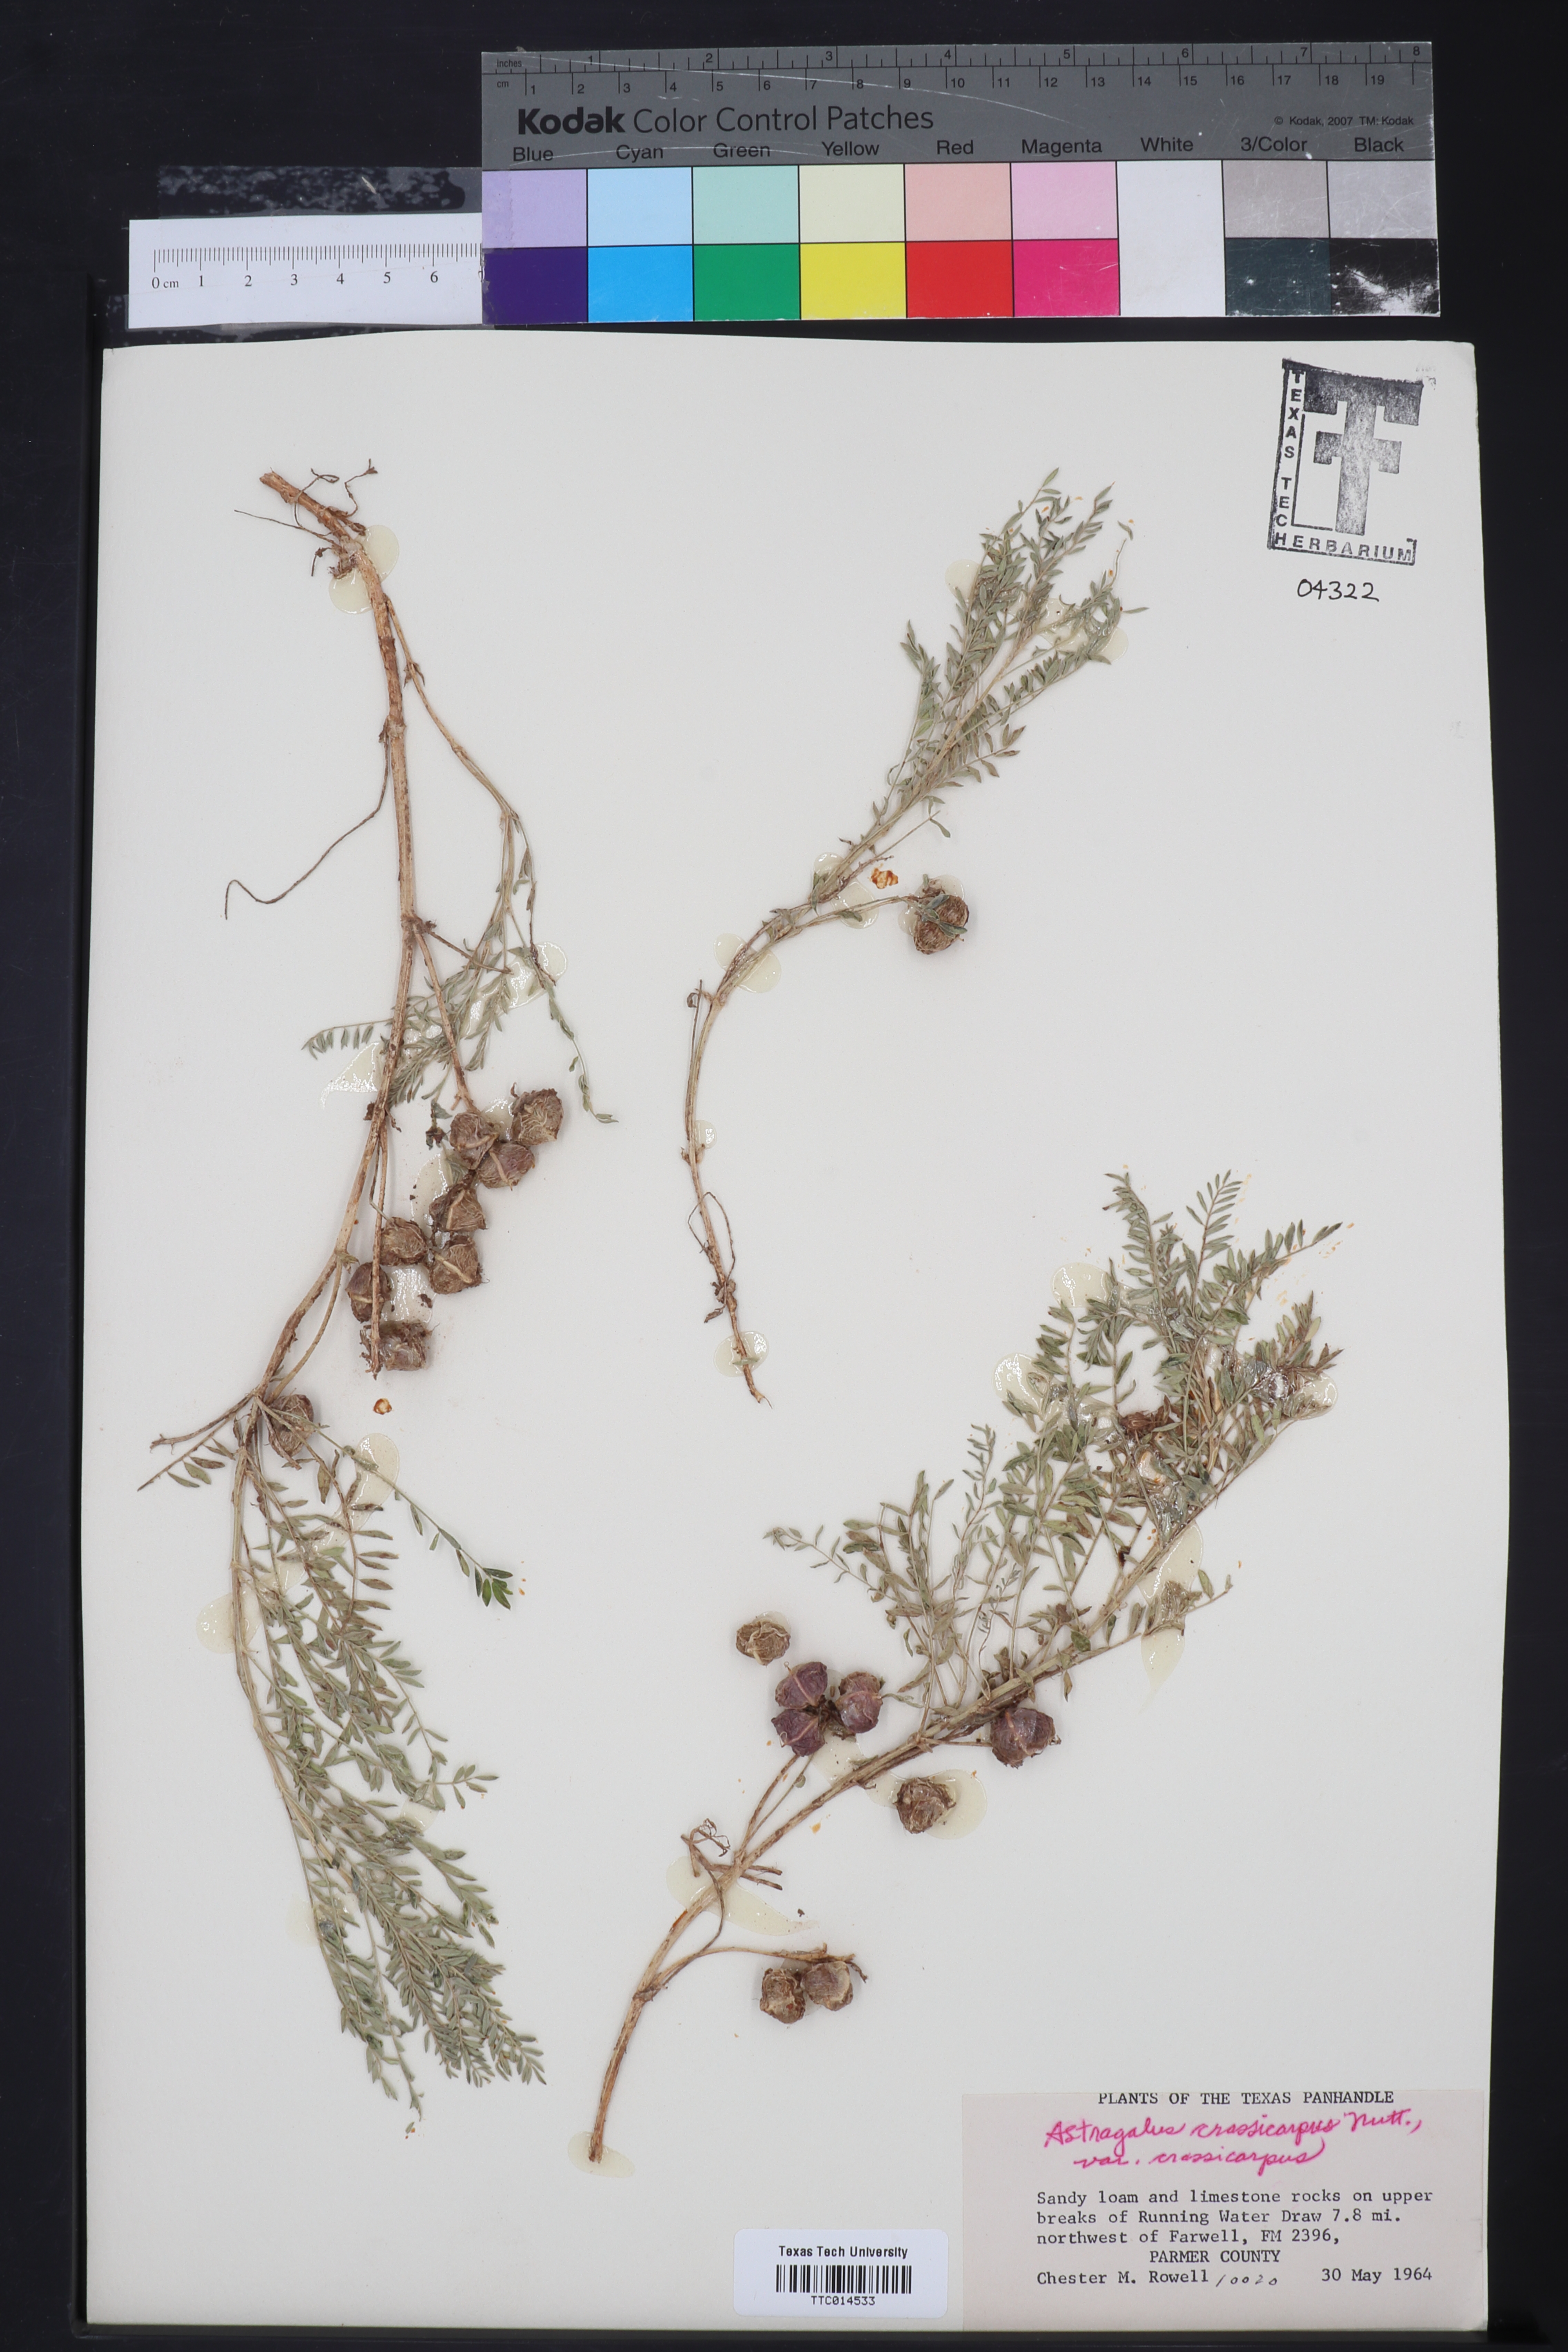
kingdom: Plantae
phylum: Tracheophyta
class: Magnoliopsida
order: Fabales
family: Fabaceae
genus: Astragalus
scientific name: Astragalus crassicarpus
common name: Ground-plum milk-vetch
